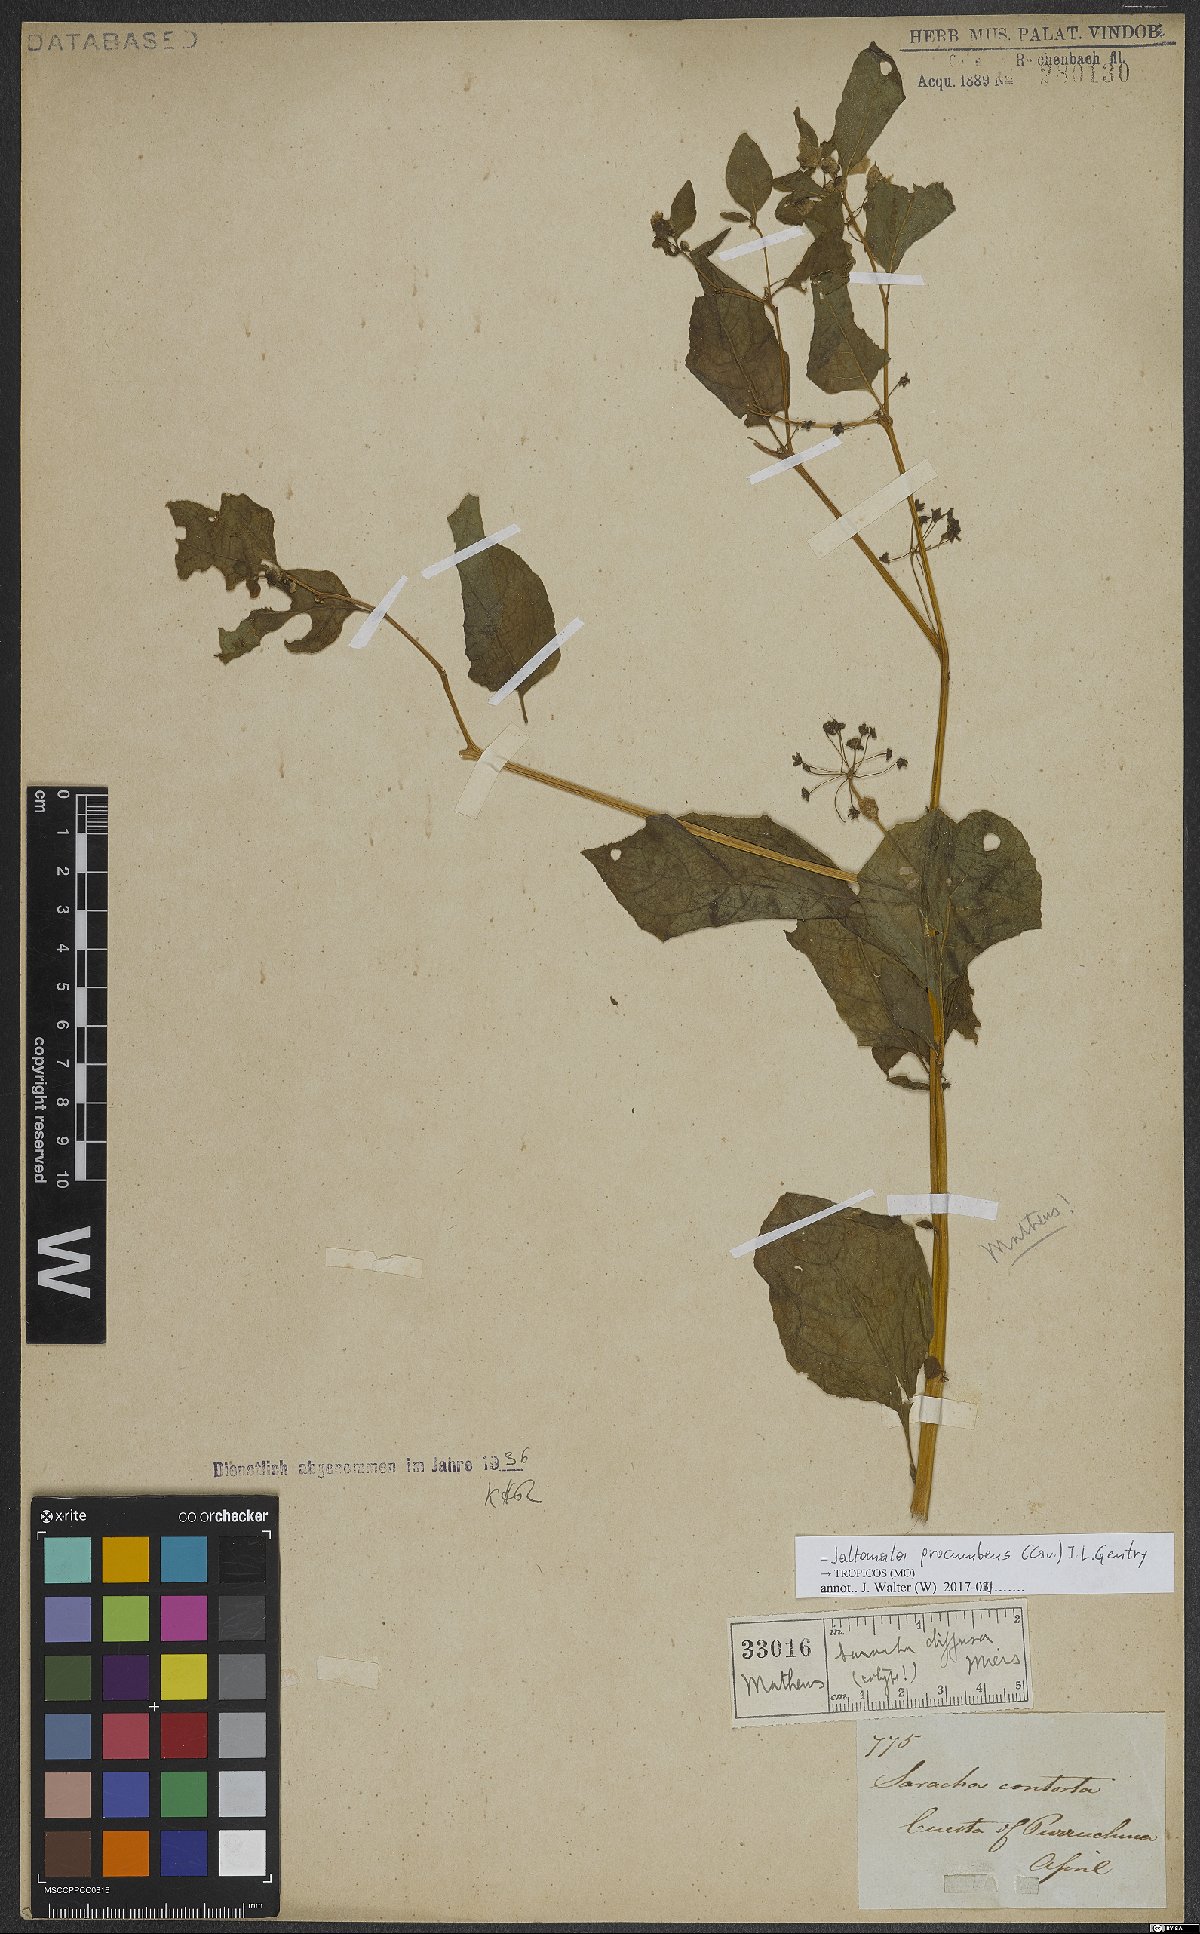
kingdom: Plantae
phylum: Tracheophyta
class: Magnoliopsida
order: Solanales
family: Solanaceae
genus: Jaltomata
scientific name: Jaltomata procumbens
